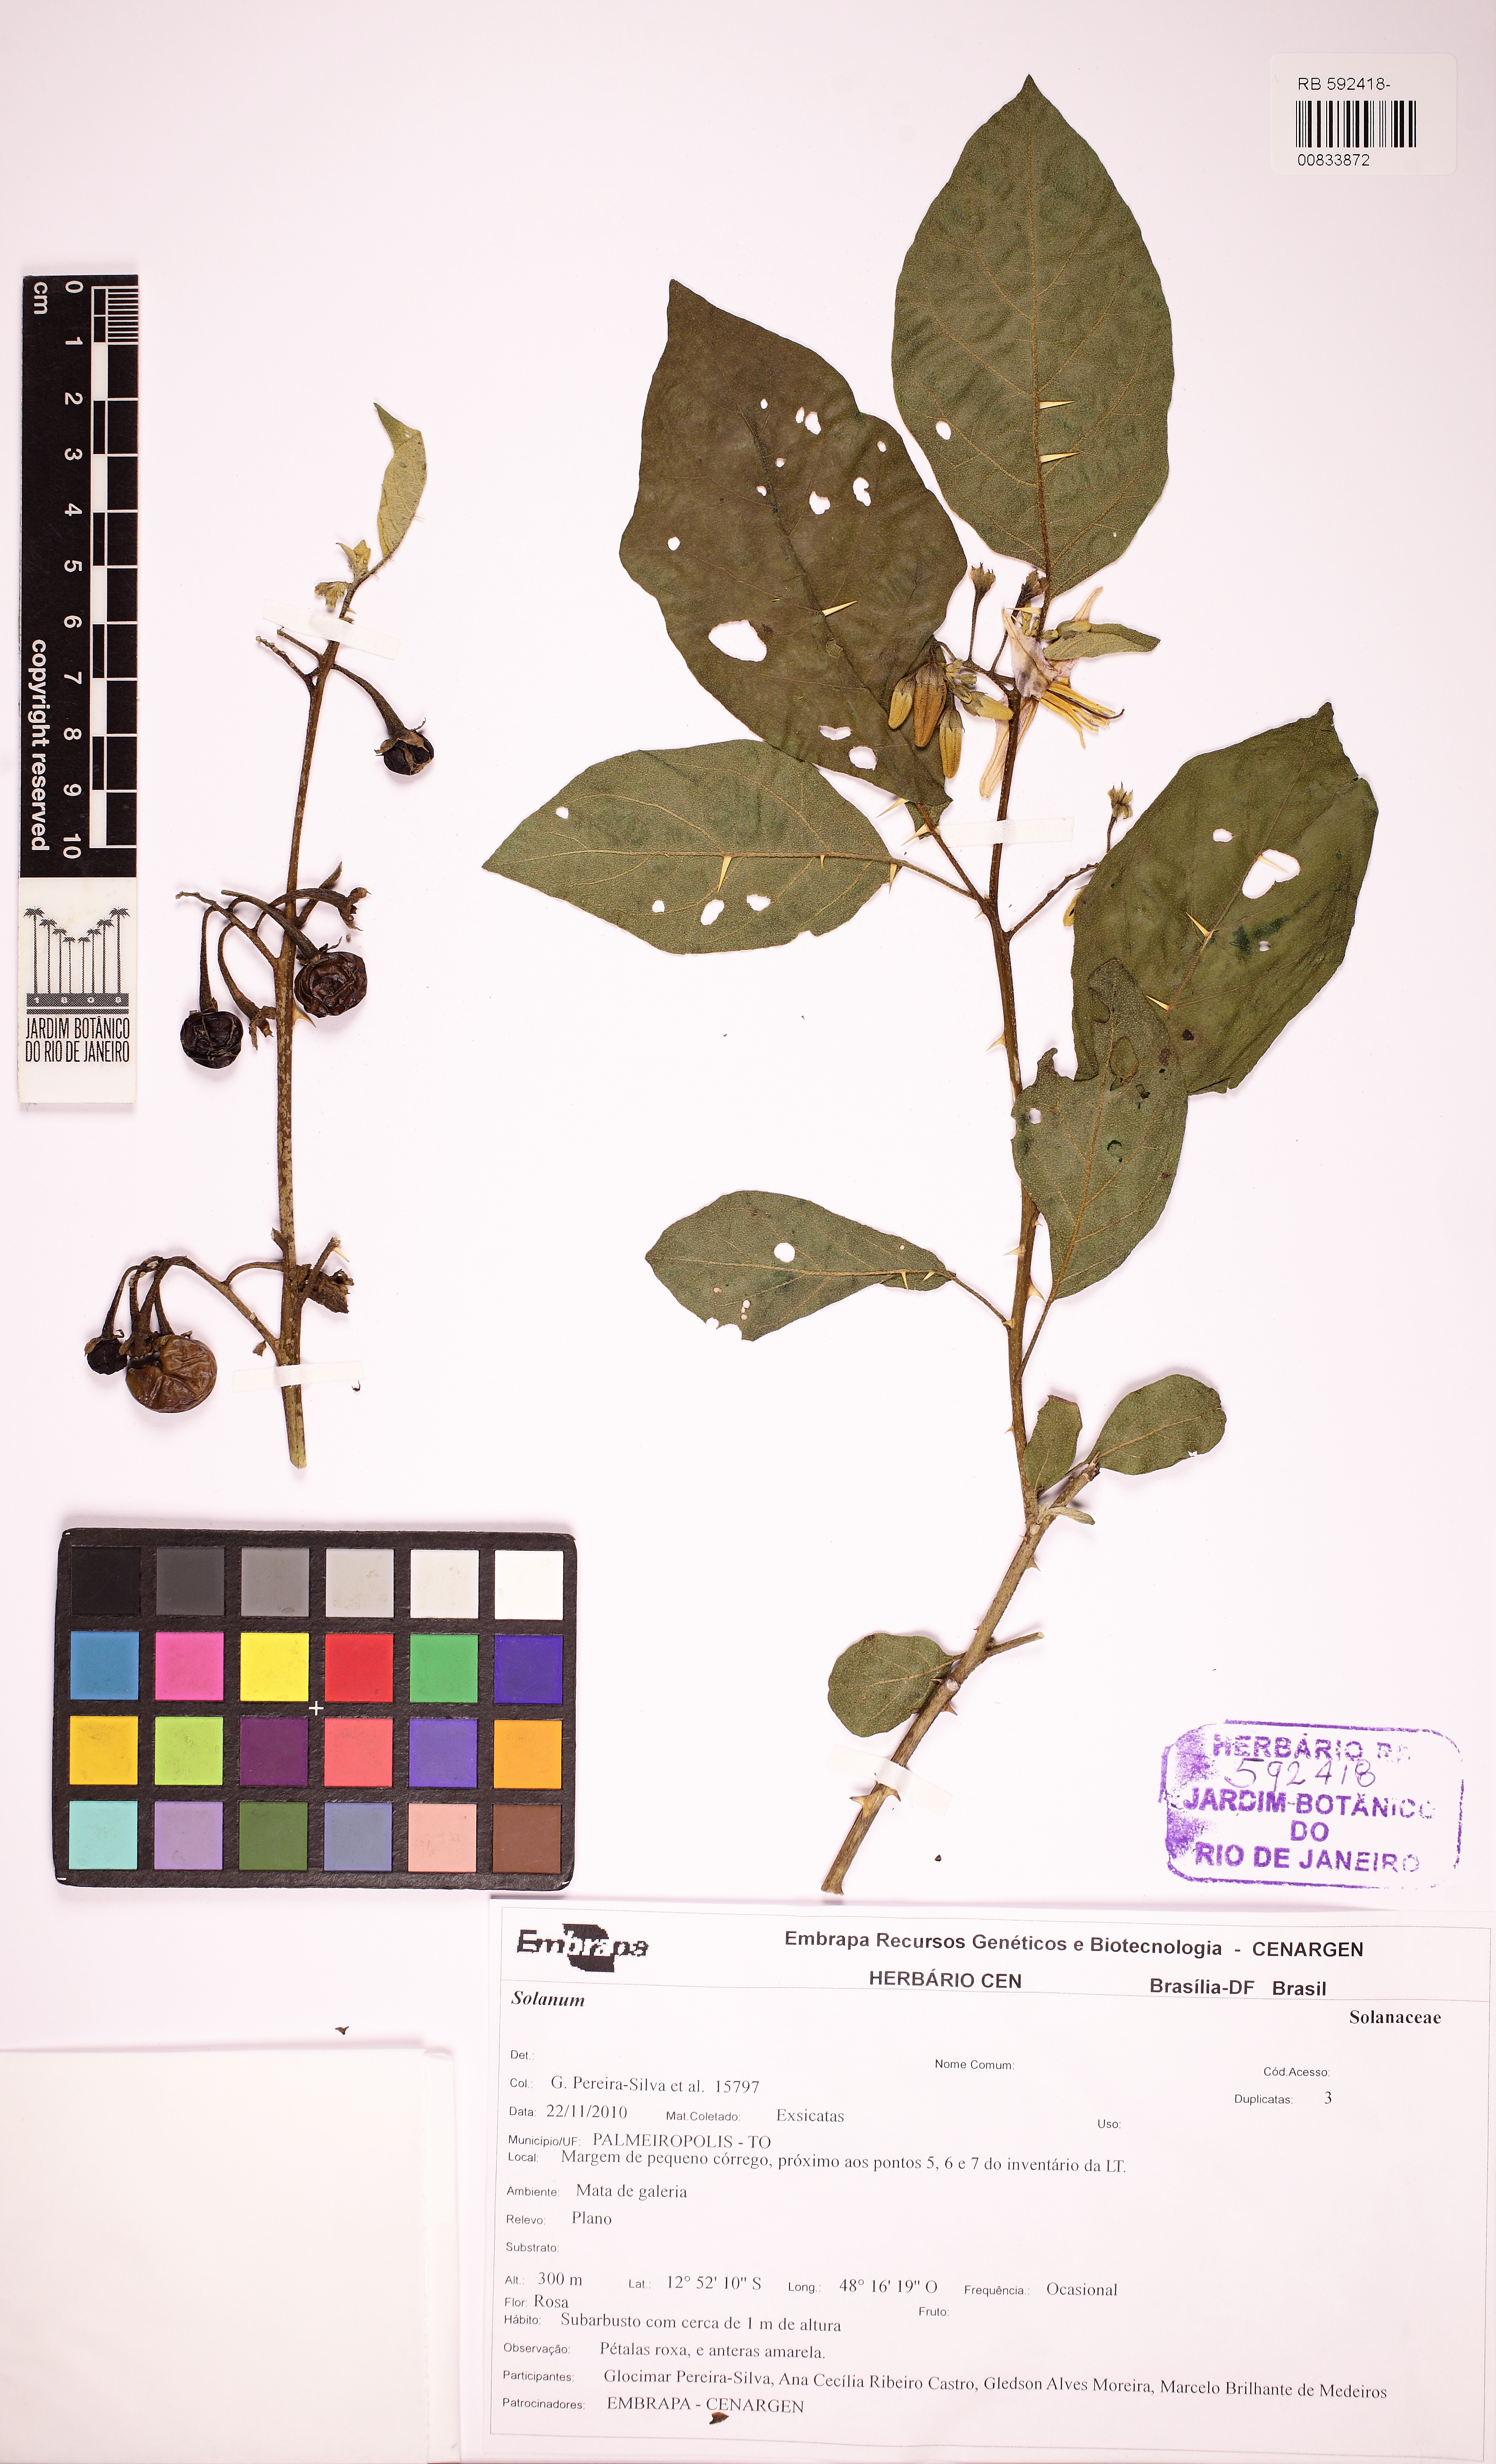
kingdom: Plantae
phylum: Tracheophyta
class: Magnoliopsida
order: Solanales
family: Solanaceae
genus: Solanum
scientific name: Solanum subinerme
